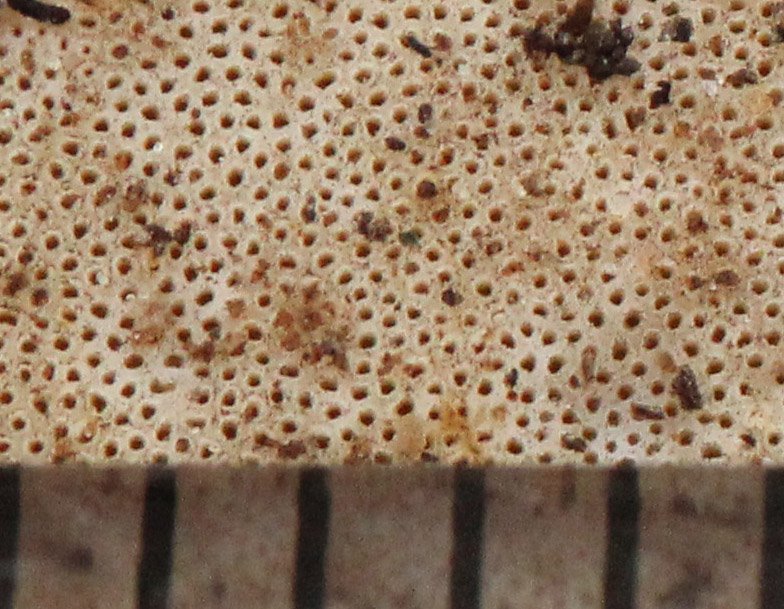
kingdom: Fungi
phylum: Basidiomycota
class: Agaricomycetes
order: Polyporales
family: Polyporaceae
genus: Picipes
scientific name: Picipes badius
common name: kastaniebrun stilkporesvamp
